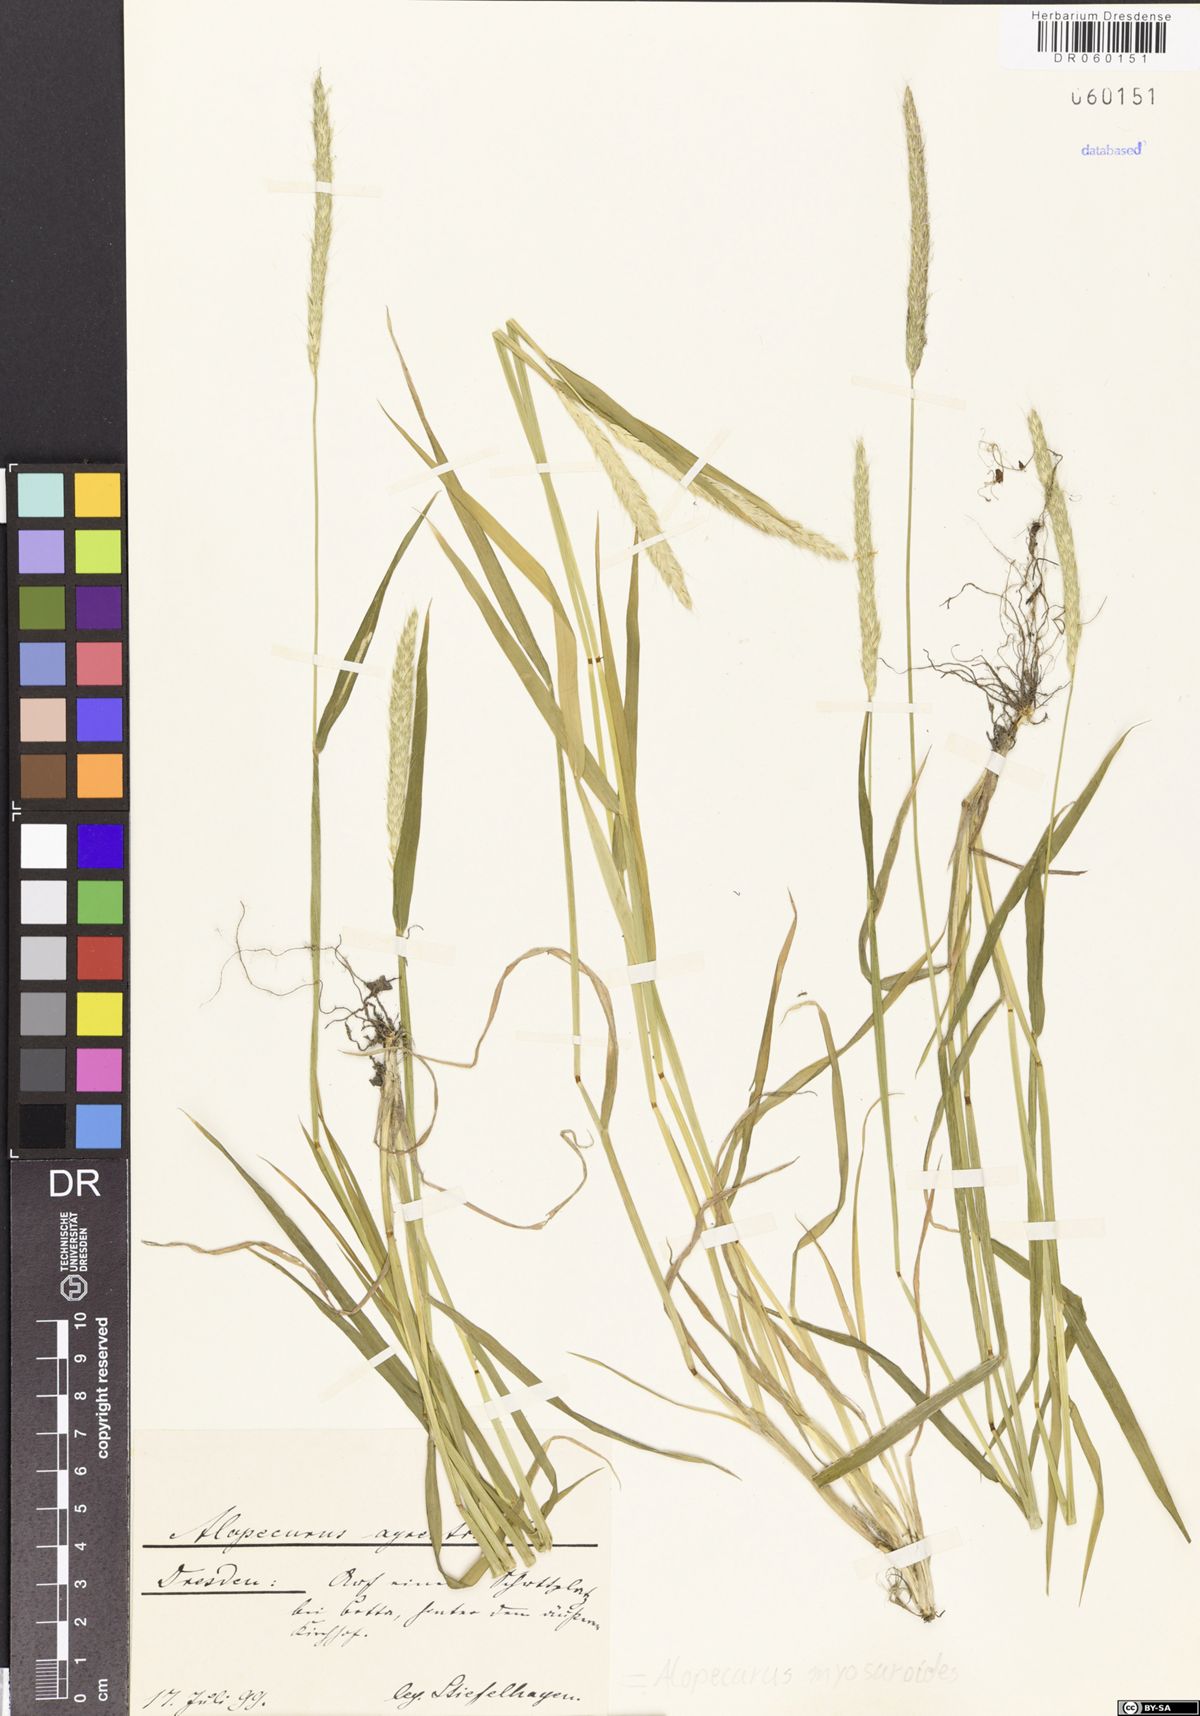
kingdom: Plantae
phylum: Tracheophyta
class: Liliopsida
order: Poales
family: Poaceae
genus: Alopecurus
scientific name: Alopecurus myosuroides
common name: Black-grass
